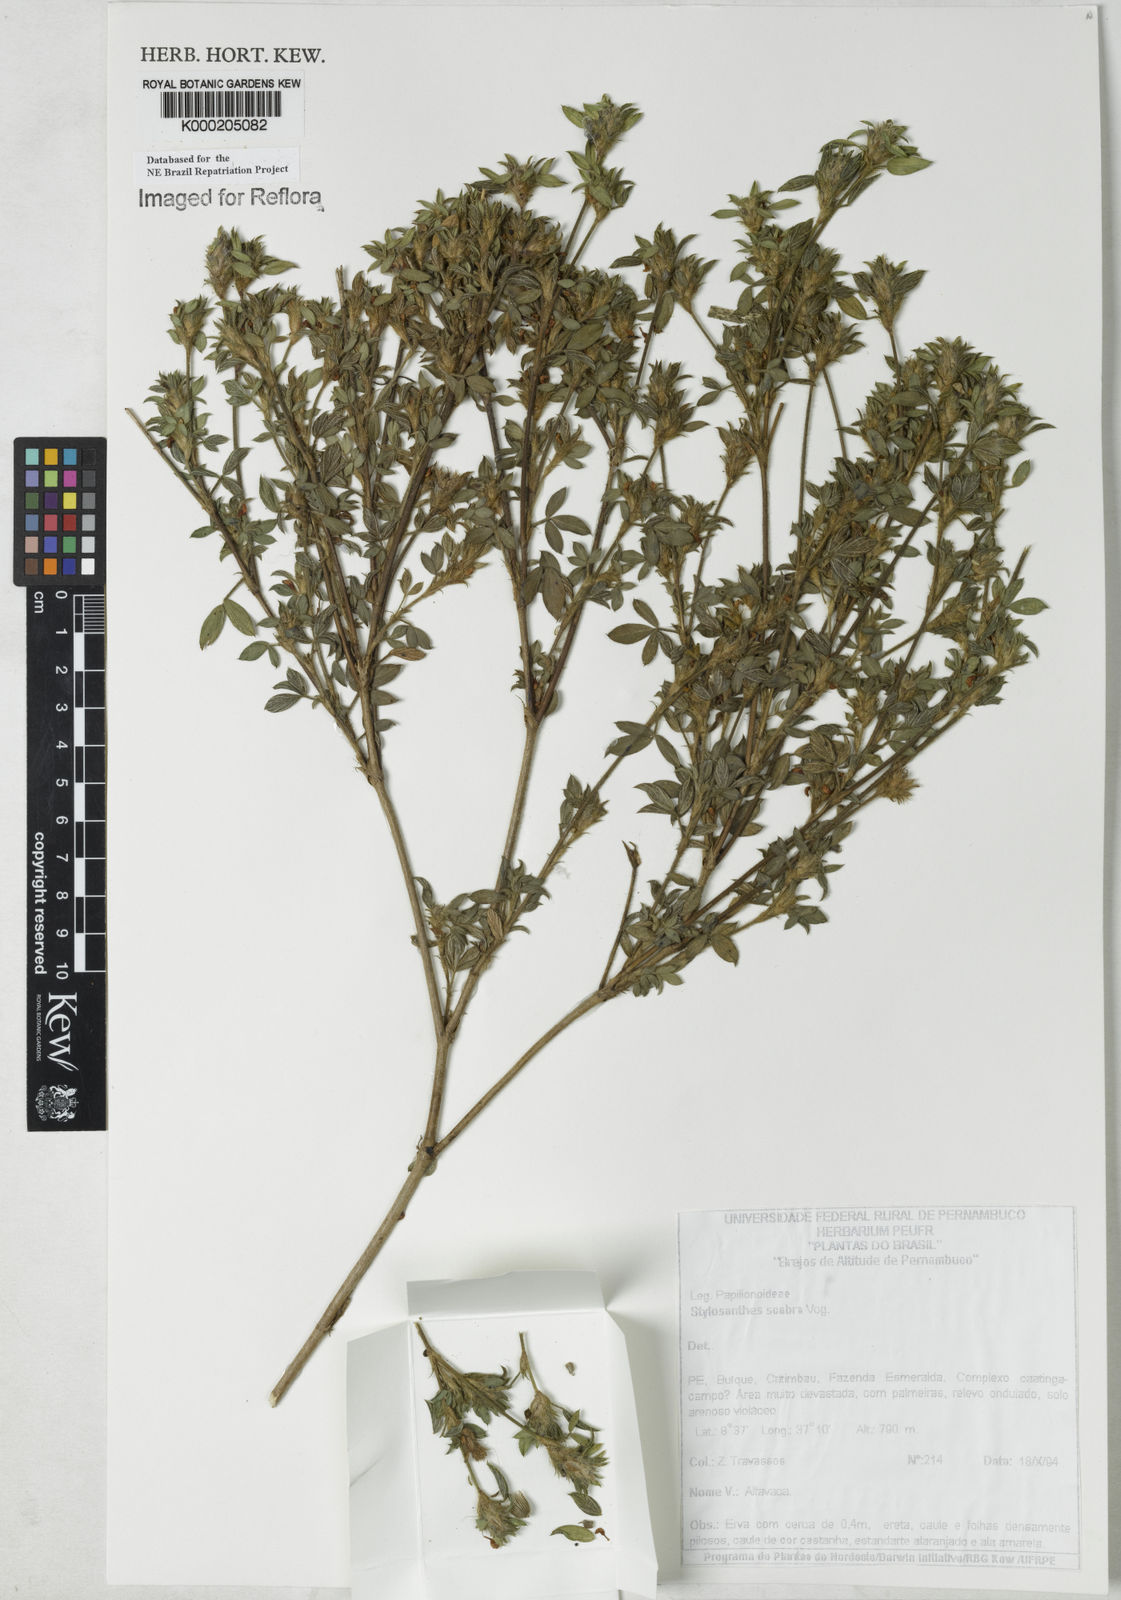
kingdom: Plantae
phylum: Tracheophyta
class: Magnoliopsida
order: Fabales
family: Fabaceae
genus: Stylosanthes
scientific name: Stylosanthes scabra
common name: Pencilflower
